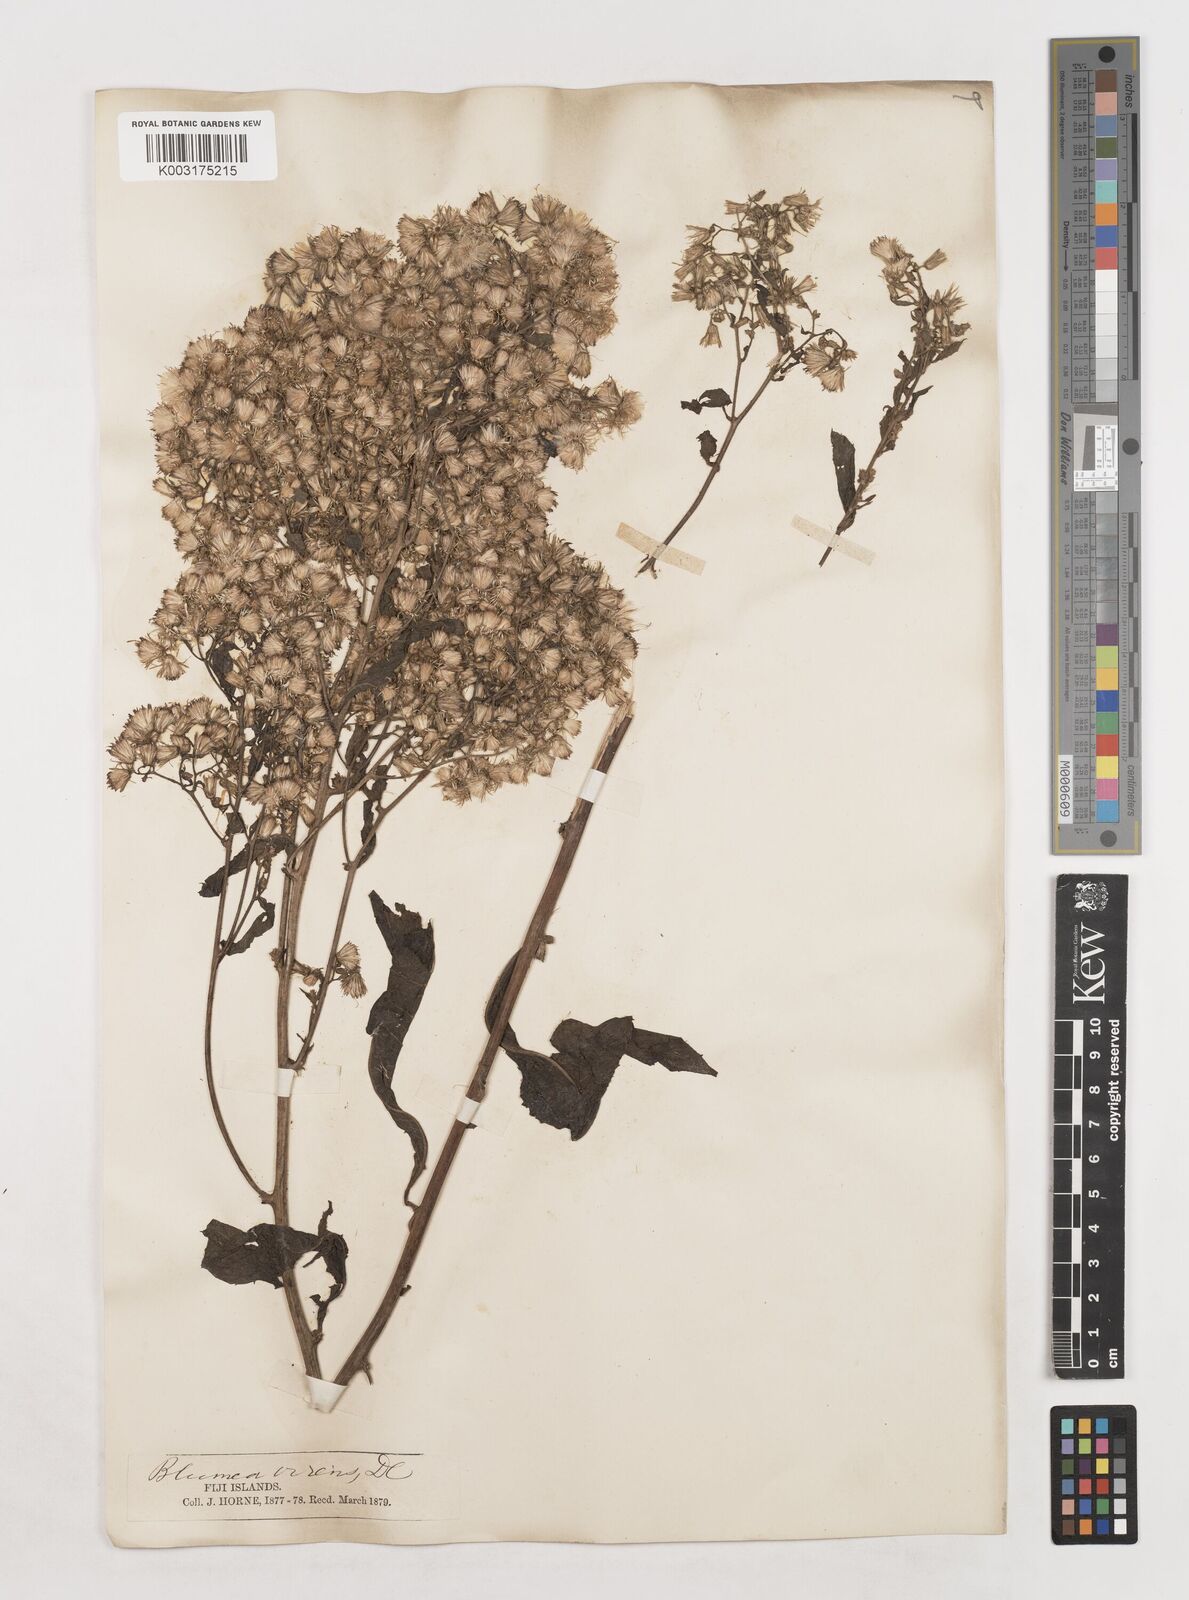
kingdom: Plantae
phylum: Tracheophyta
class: Magnoliopsida
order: Asterales
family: Asteraceae
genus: Blumea
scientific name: Blumea milnei
